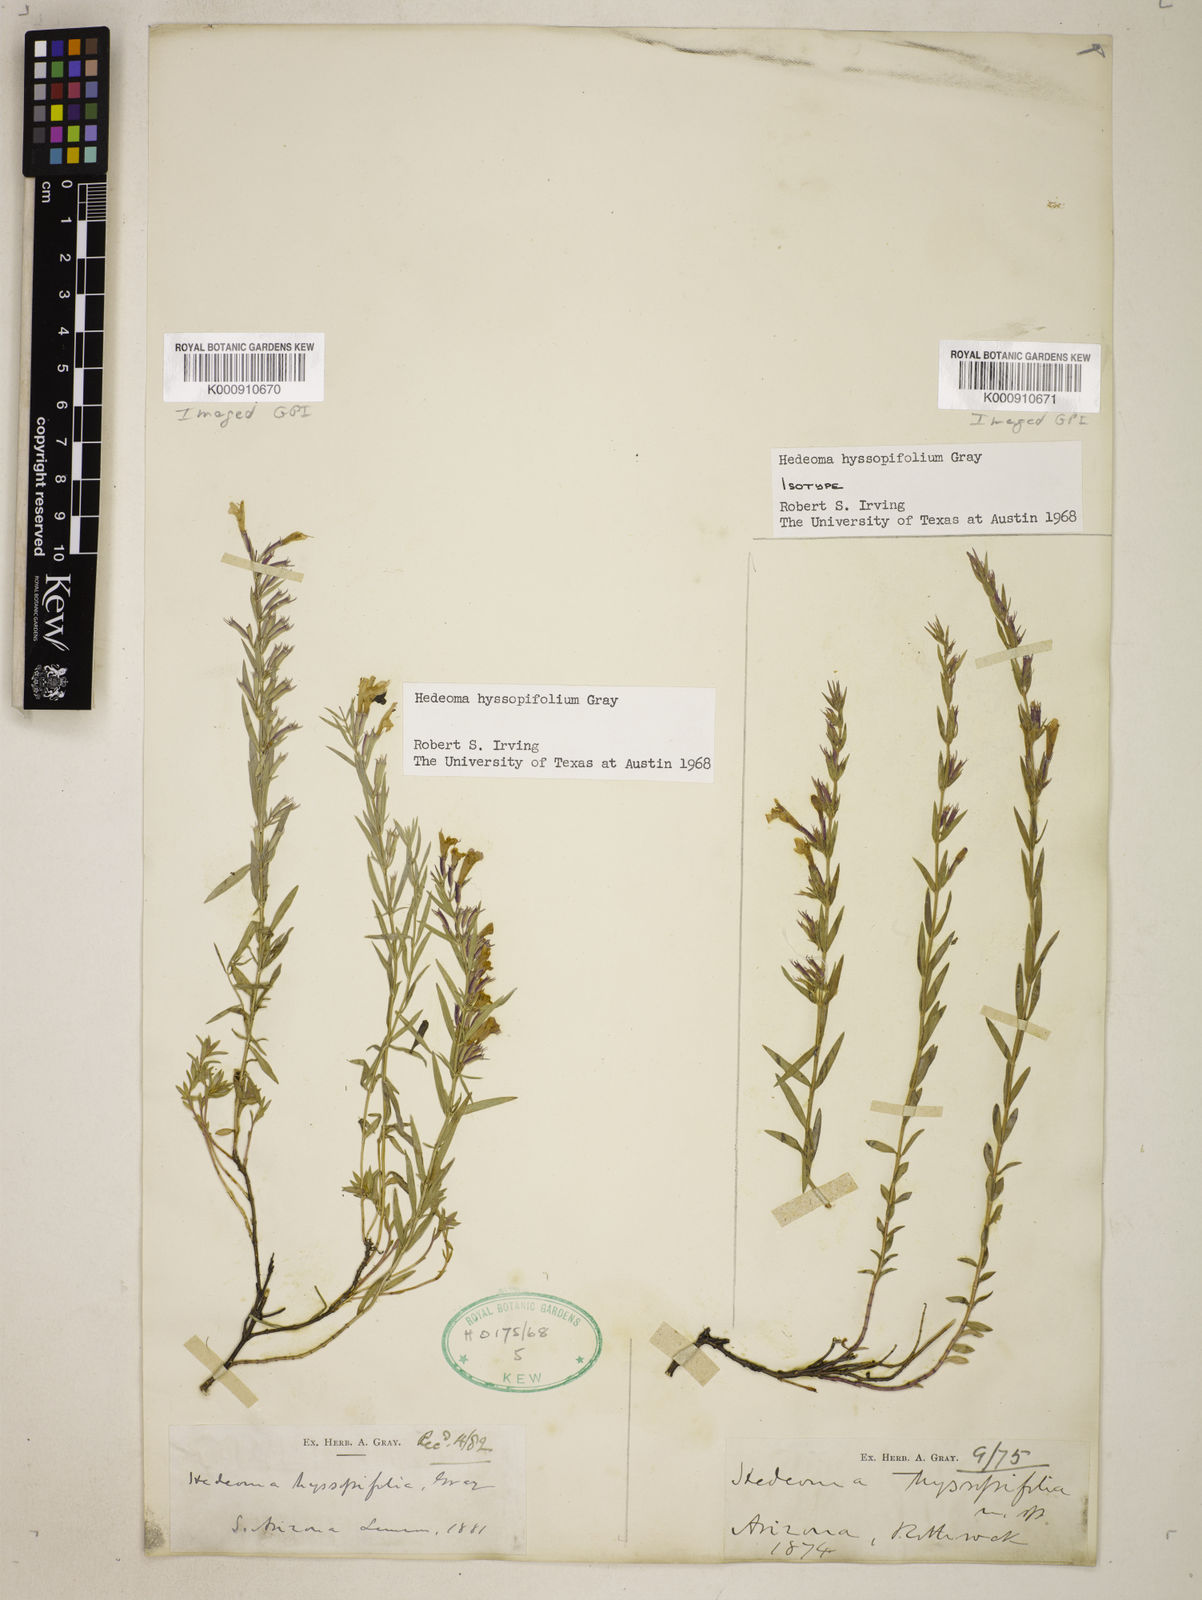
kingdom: Plantae
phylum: Tracheophyta
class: Magnoliopsida
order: Lamiales
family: Lamiaceae
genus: Hedeoma
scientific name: Hedeoma hyssopifolia
